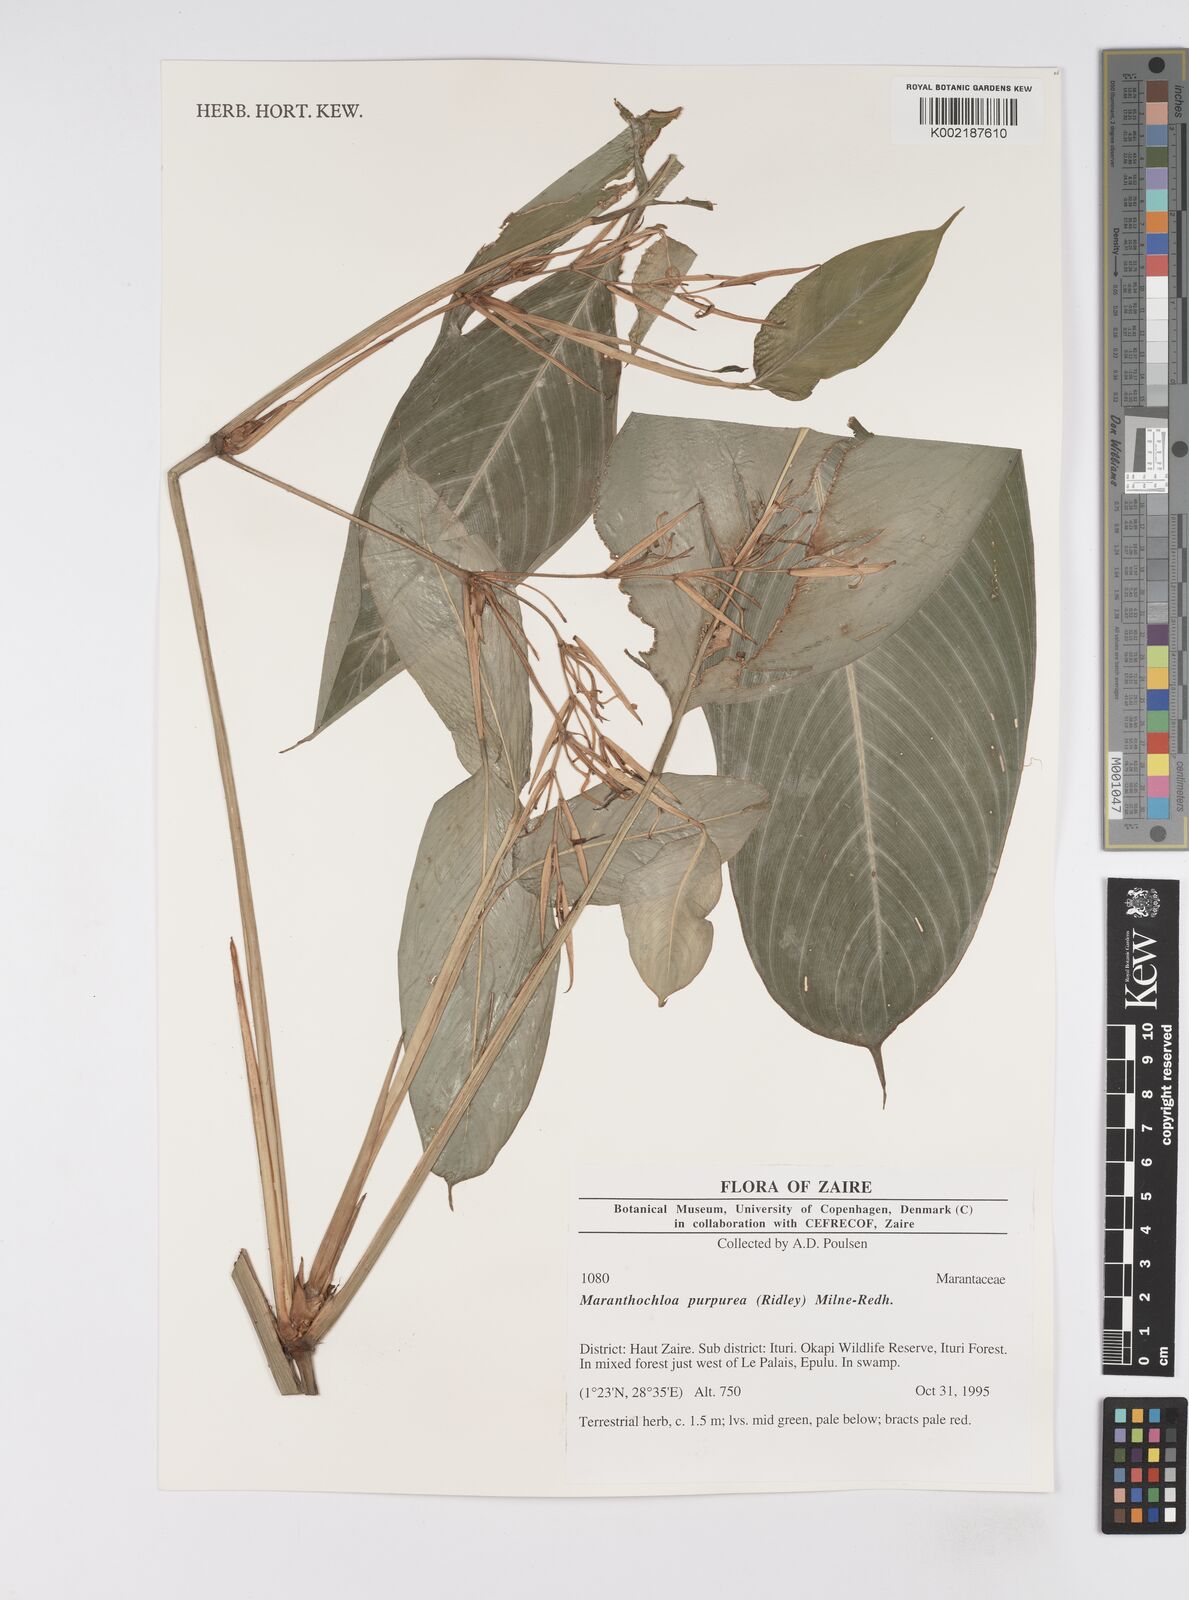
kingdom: Plantae
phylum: Tracheophyta
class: Liliopsida
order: Zingiberales
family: Marantaceae
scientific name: Marantaceae
